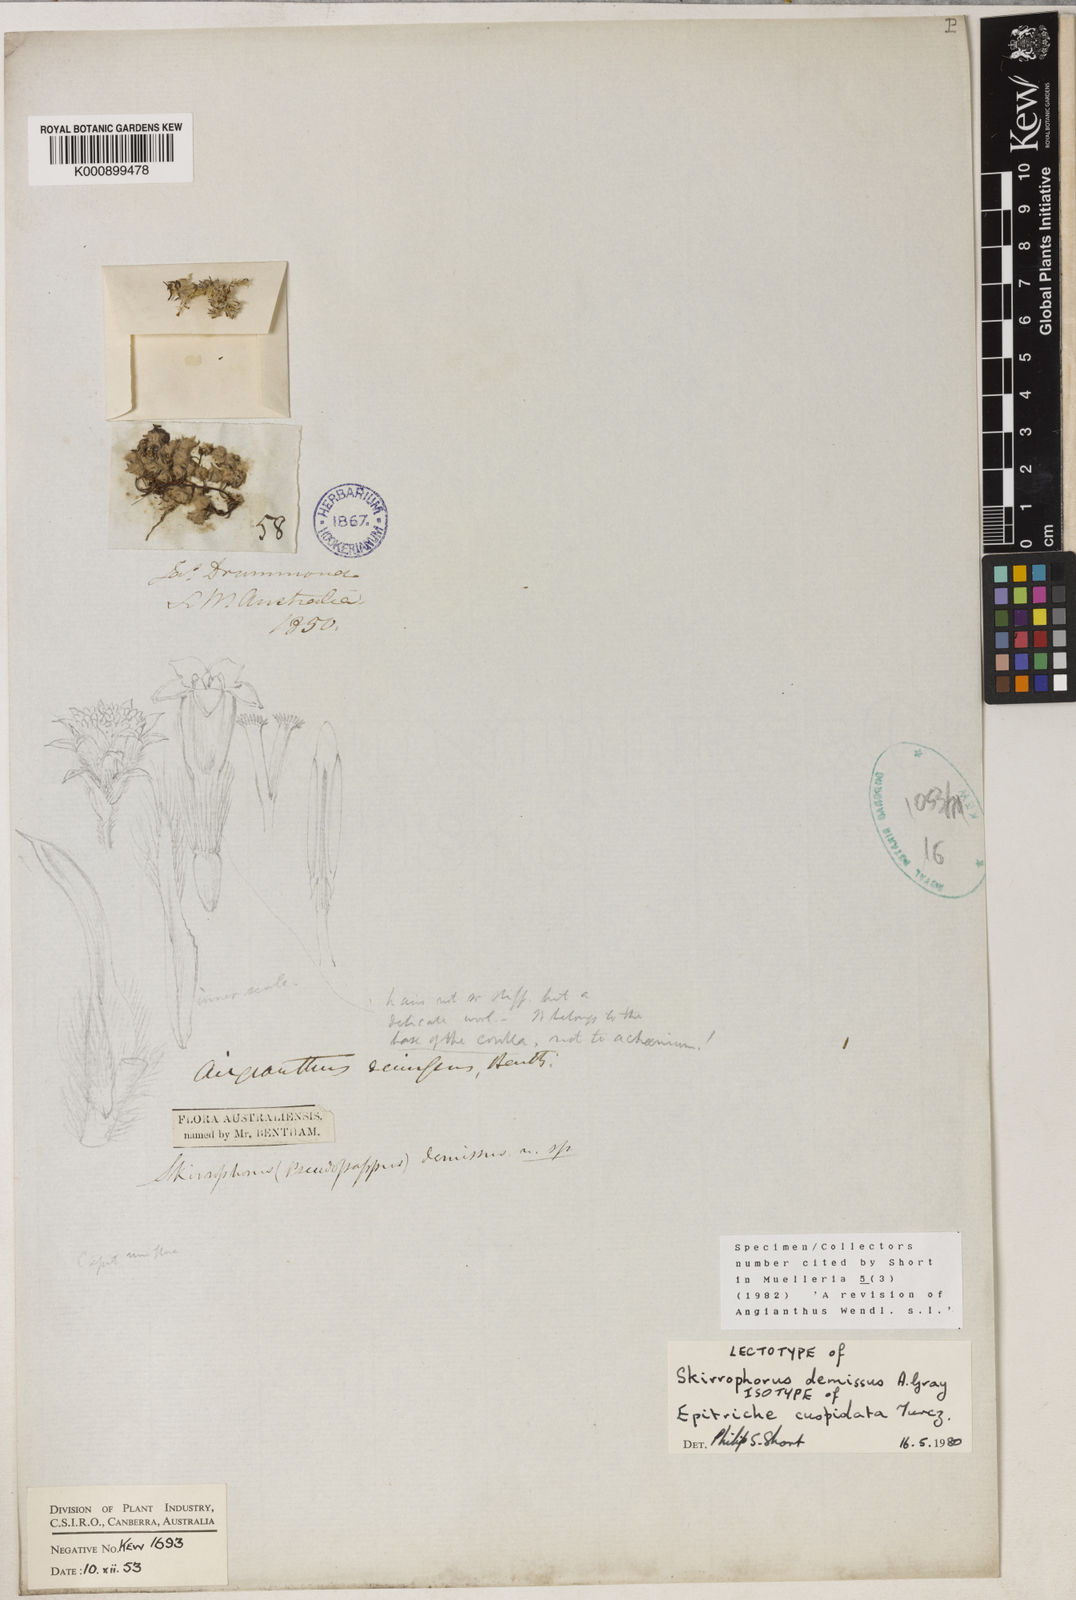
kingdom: Plantae
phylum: Tracheophyta
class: Magnoliopsida
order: Asterales
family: Asteraceae
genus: Epitriche
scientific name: Epitriche demissus
